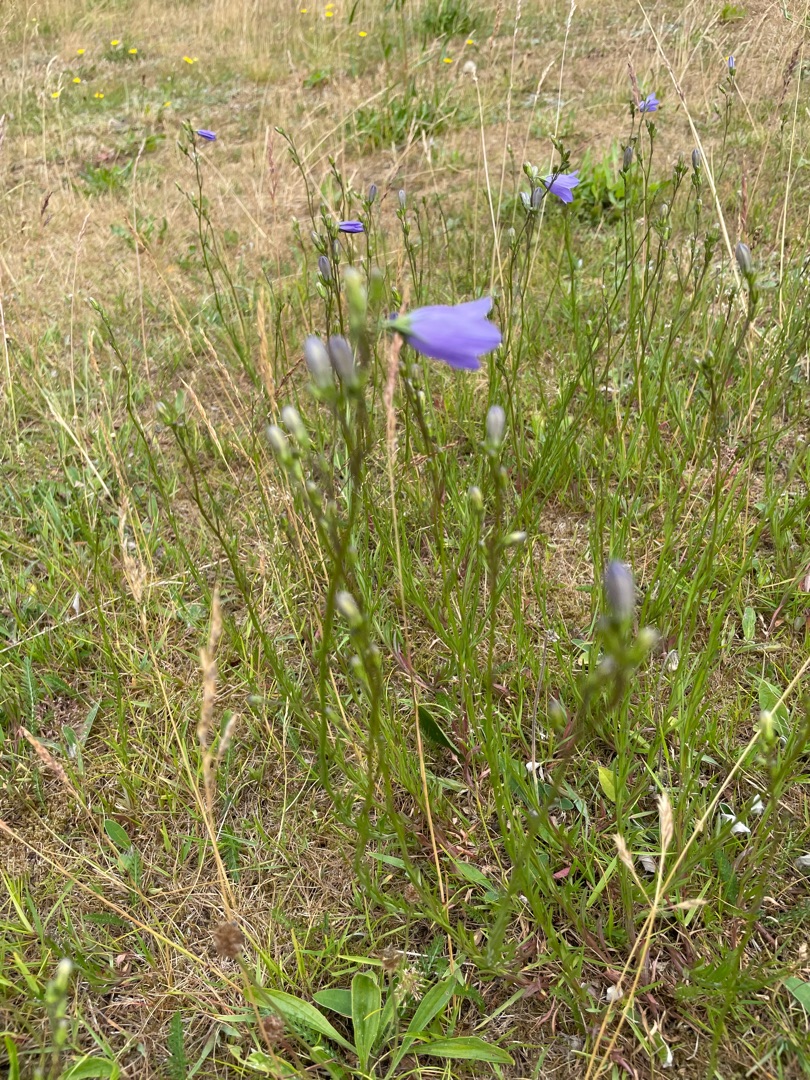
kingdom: Plantae
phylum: Tracheophyta
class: Magnoliopsida
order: Asterales
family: Campanulaceae
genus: Campanula
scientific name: Campanula rotundifolia
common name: Liden klokke
